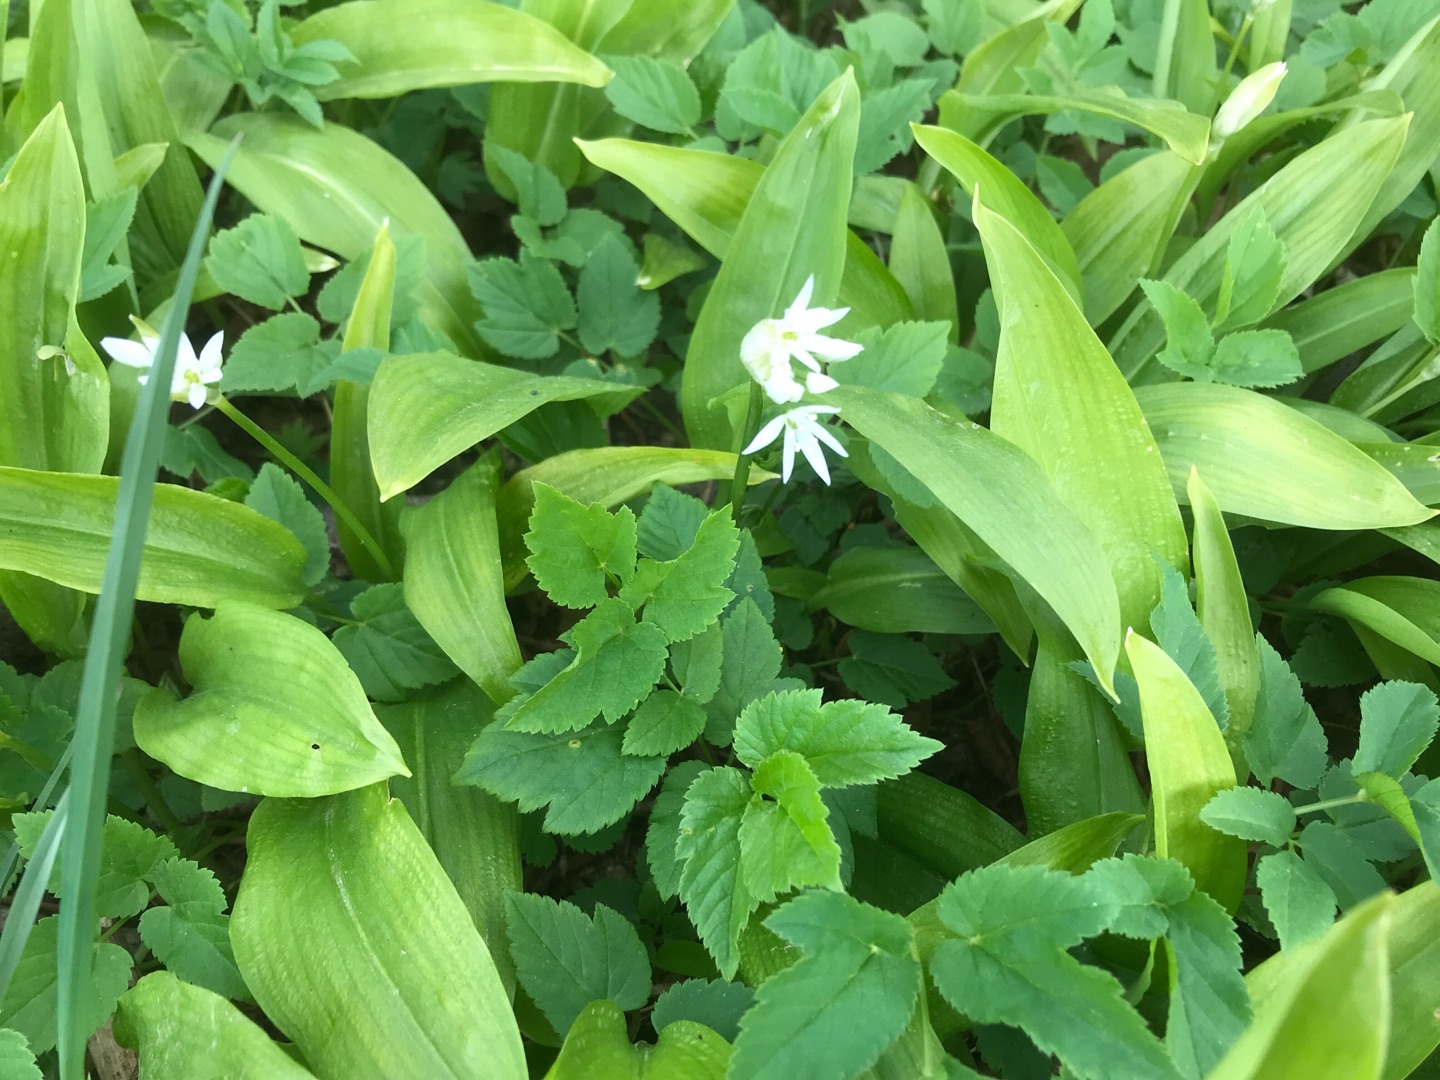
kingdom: Plantae
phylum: Tracheophyta
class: Liliopsida
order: Asparagales
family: Amaryllidaceae
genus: Allium
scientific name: Allium ursinum
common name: Rams-løg
